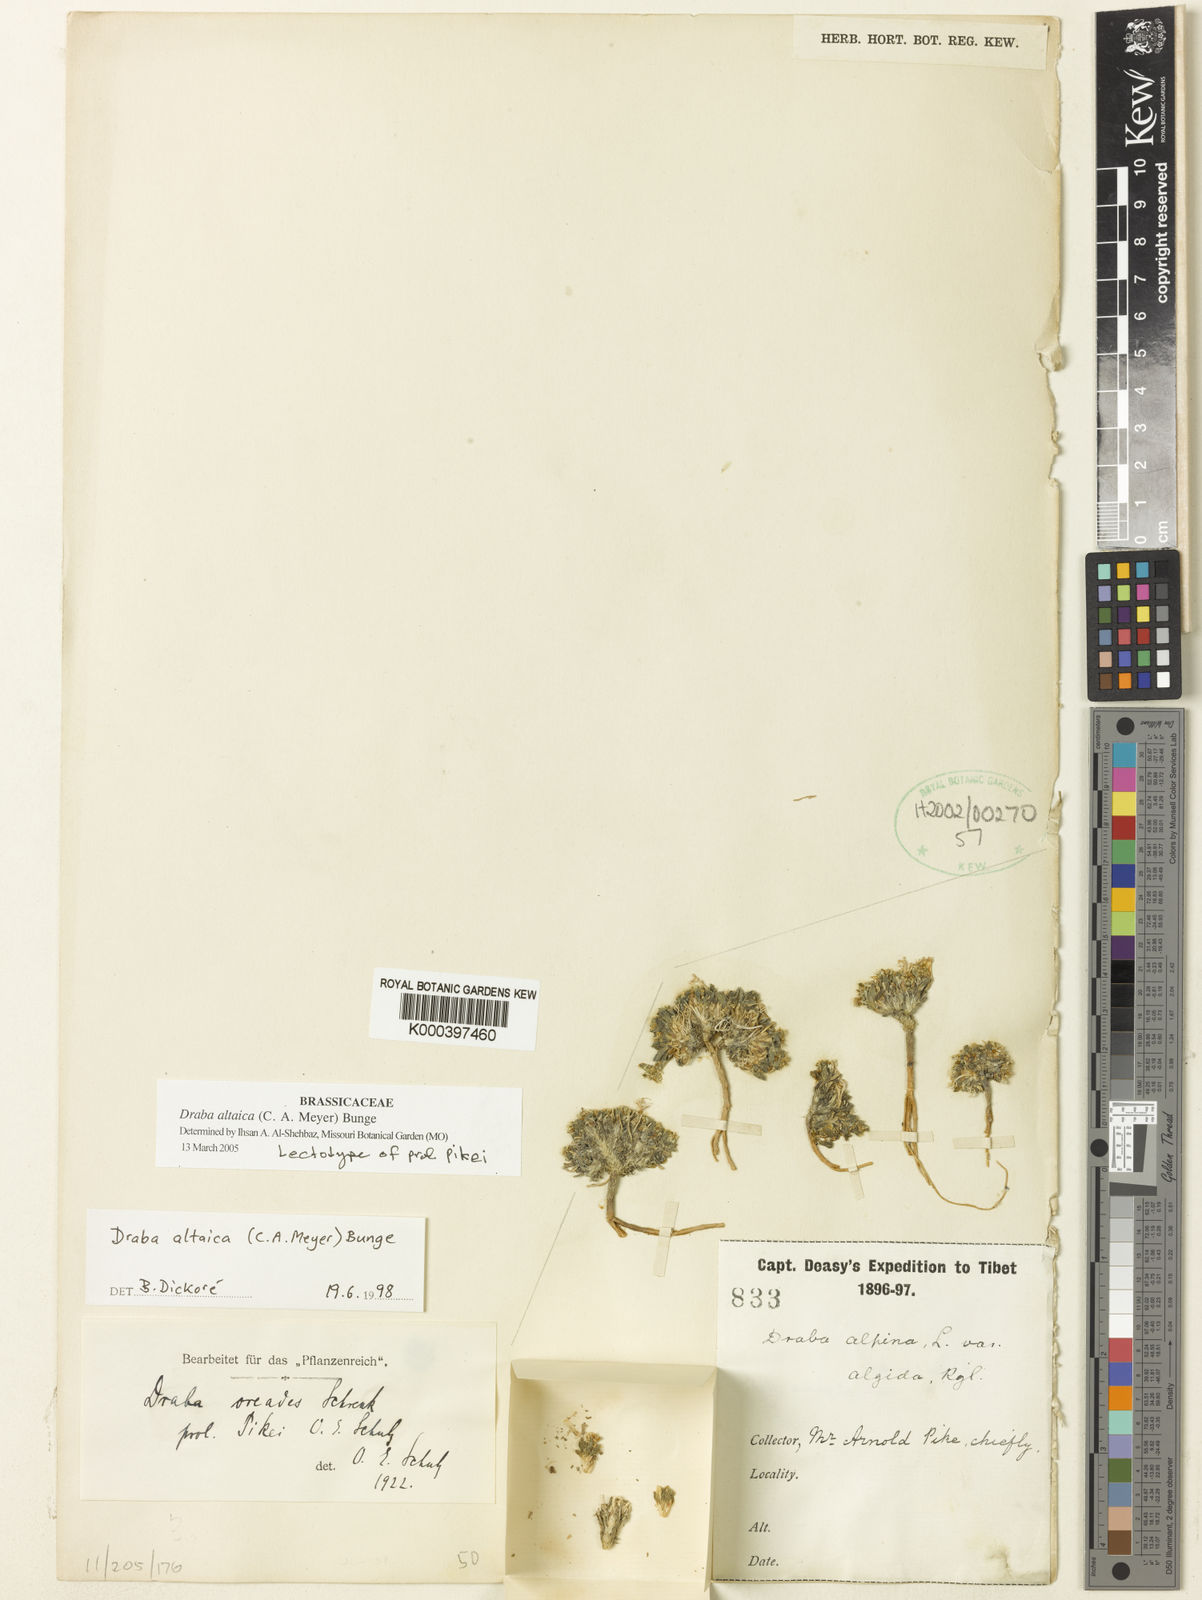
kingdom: Plantae
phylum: Tracheophyta
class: Magnoliopsida
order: Brassicales
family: Brassicaceae
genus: Draba
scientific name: Draba altaica
